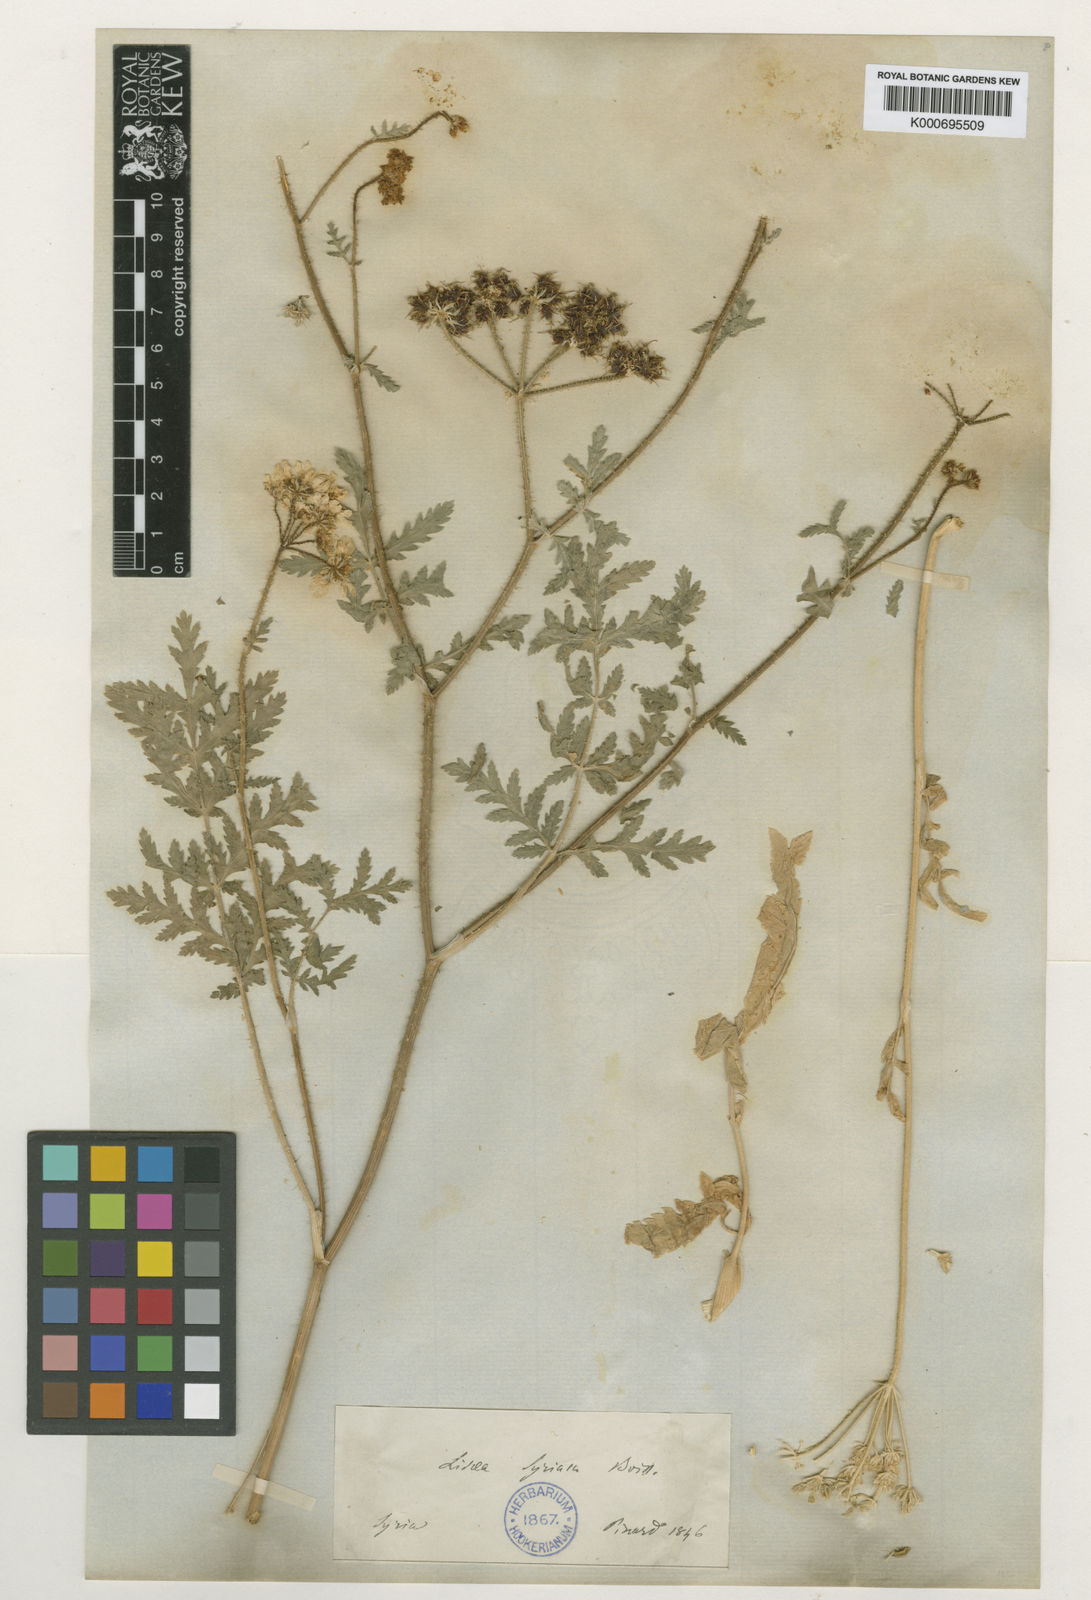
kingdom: Plantae
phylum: Tracheophyta
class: Magnoliopsida
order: Apiales
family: Apiaceae
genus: Lisaea
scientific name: Lisaea
